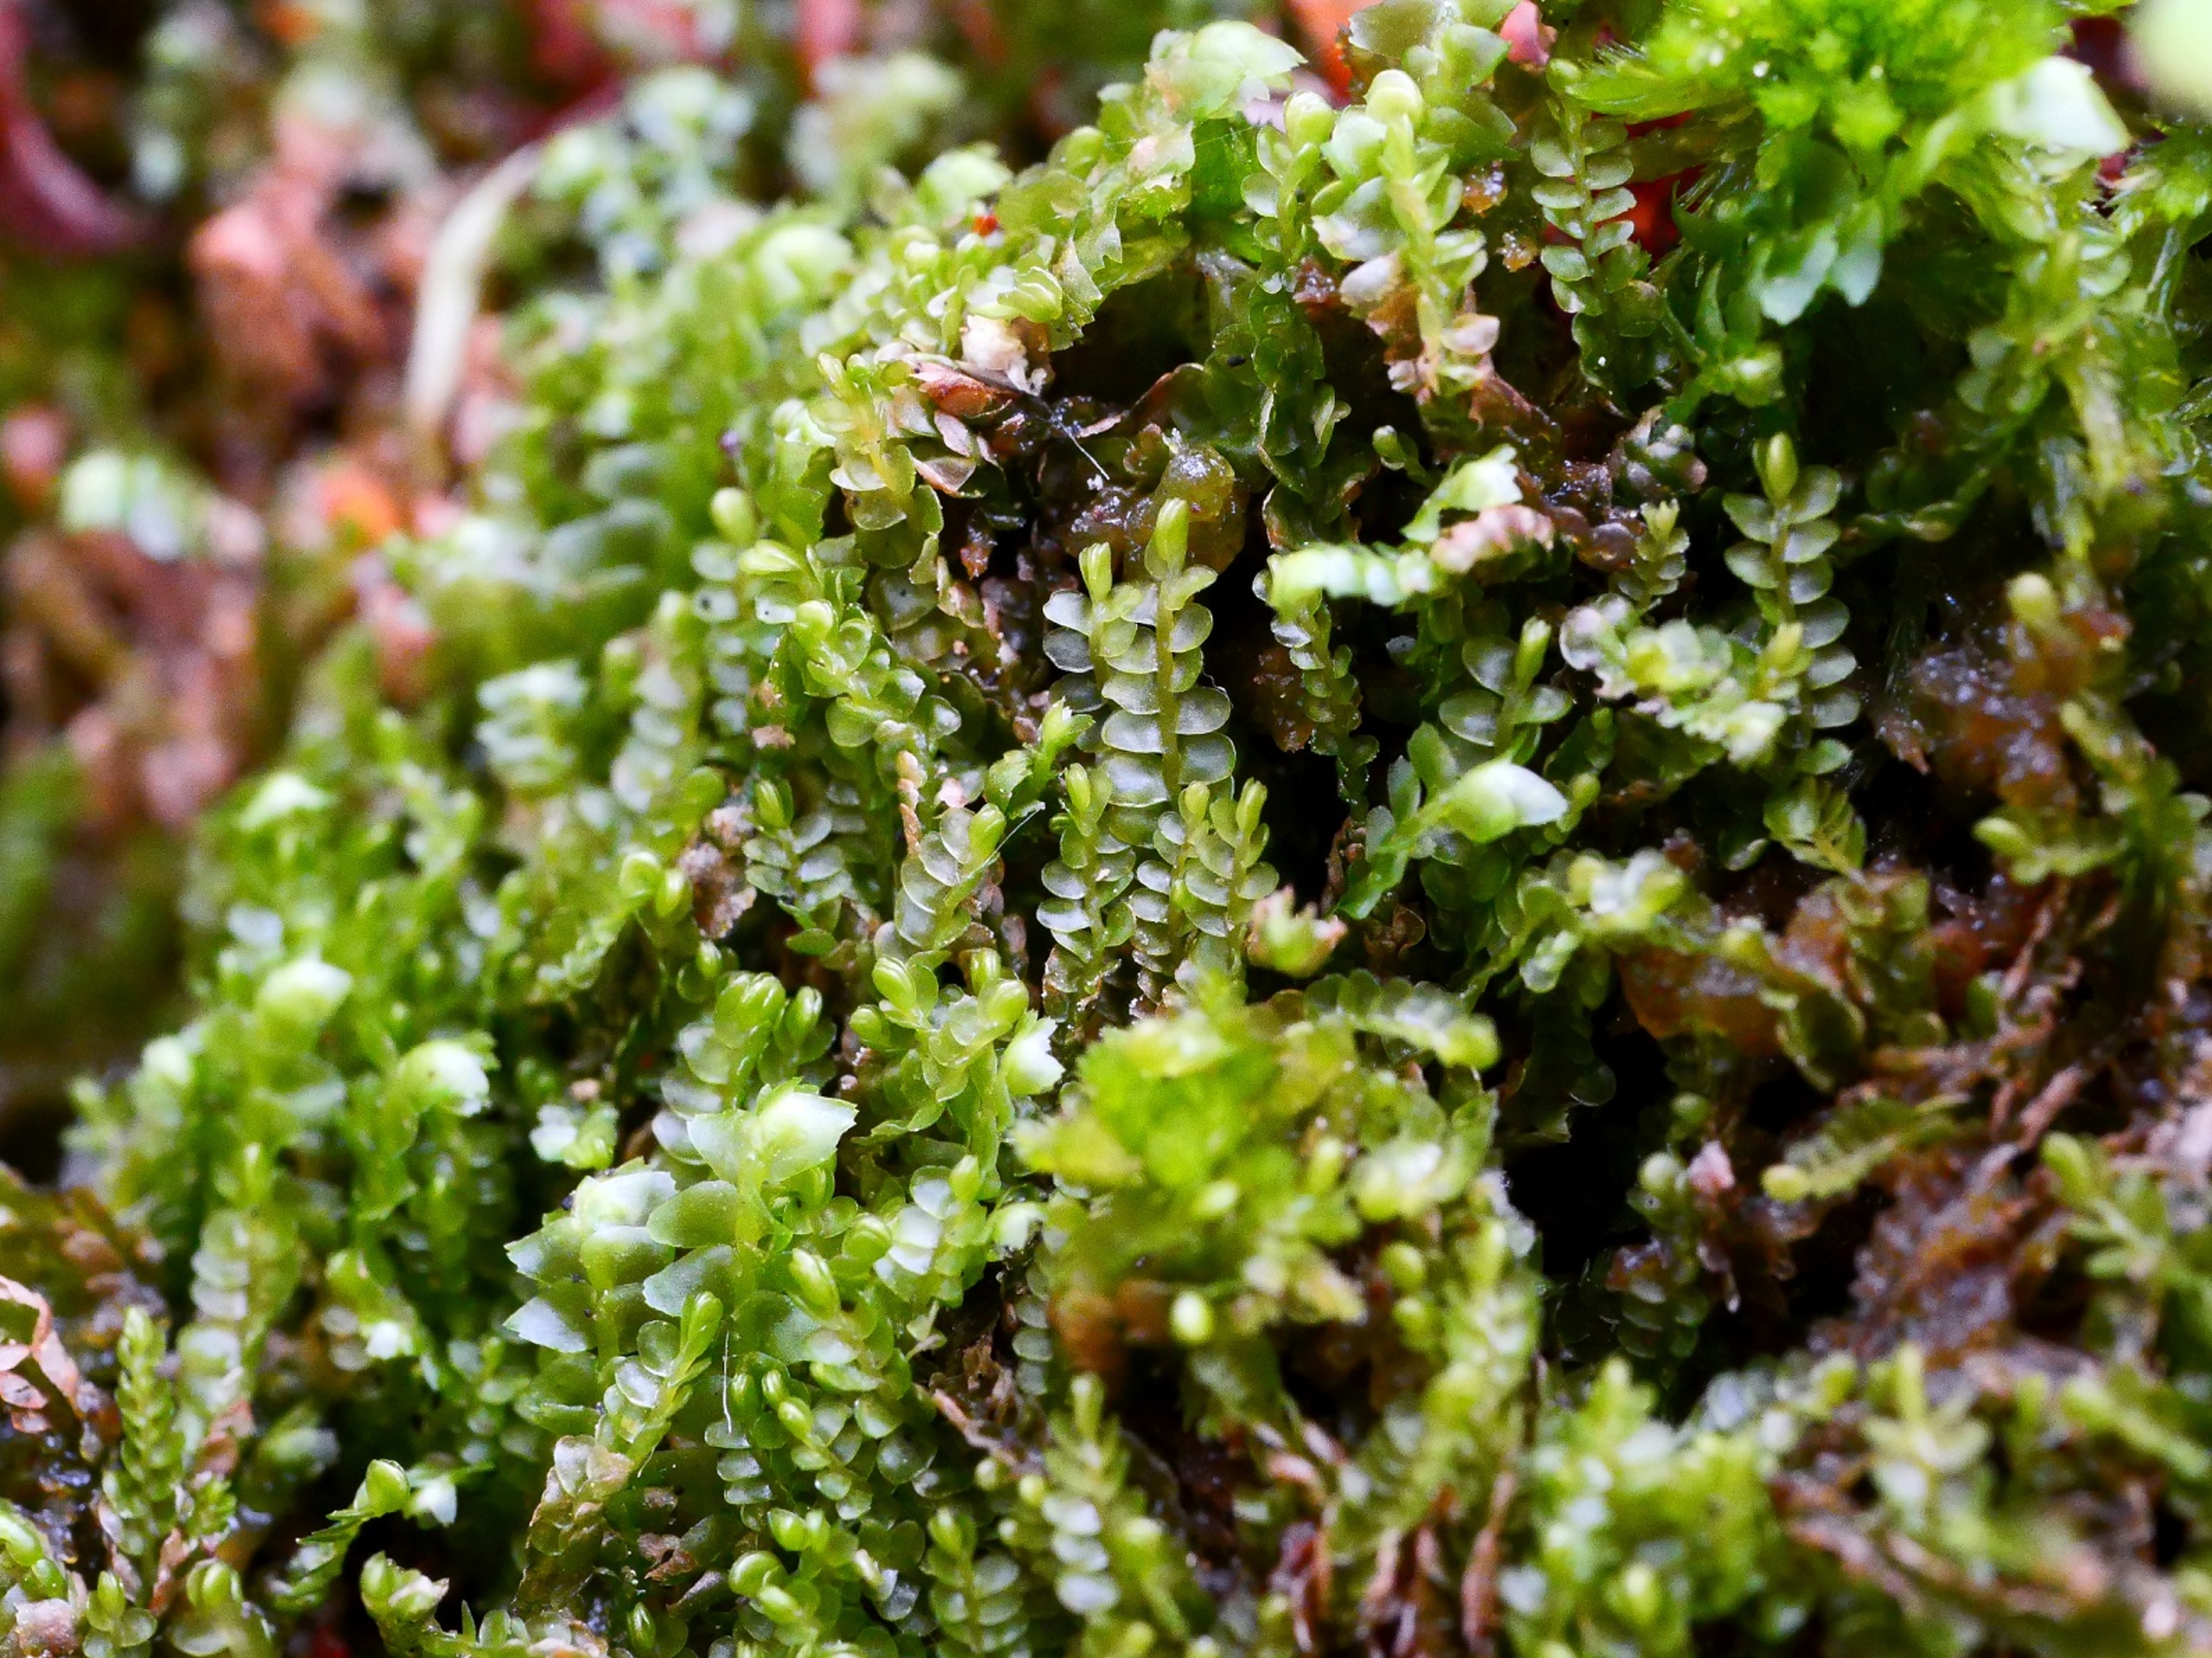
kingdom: Plantae
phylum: Marchantiophyta
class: Jungermanniopsida
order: Jungermanniales
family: Cephaloziaceae
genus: Odontoschisma
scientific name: Odontoschisma sphagni
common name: Almindelig flagelmos
